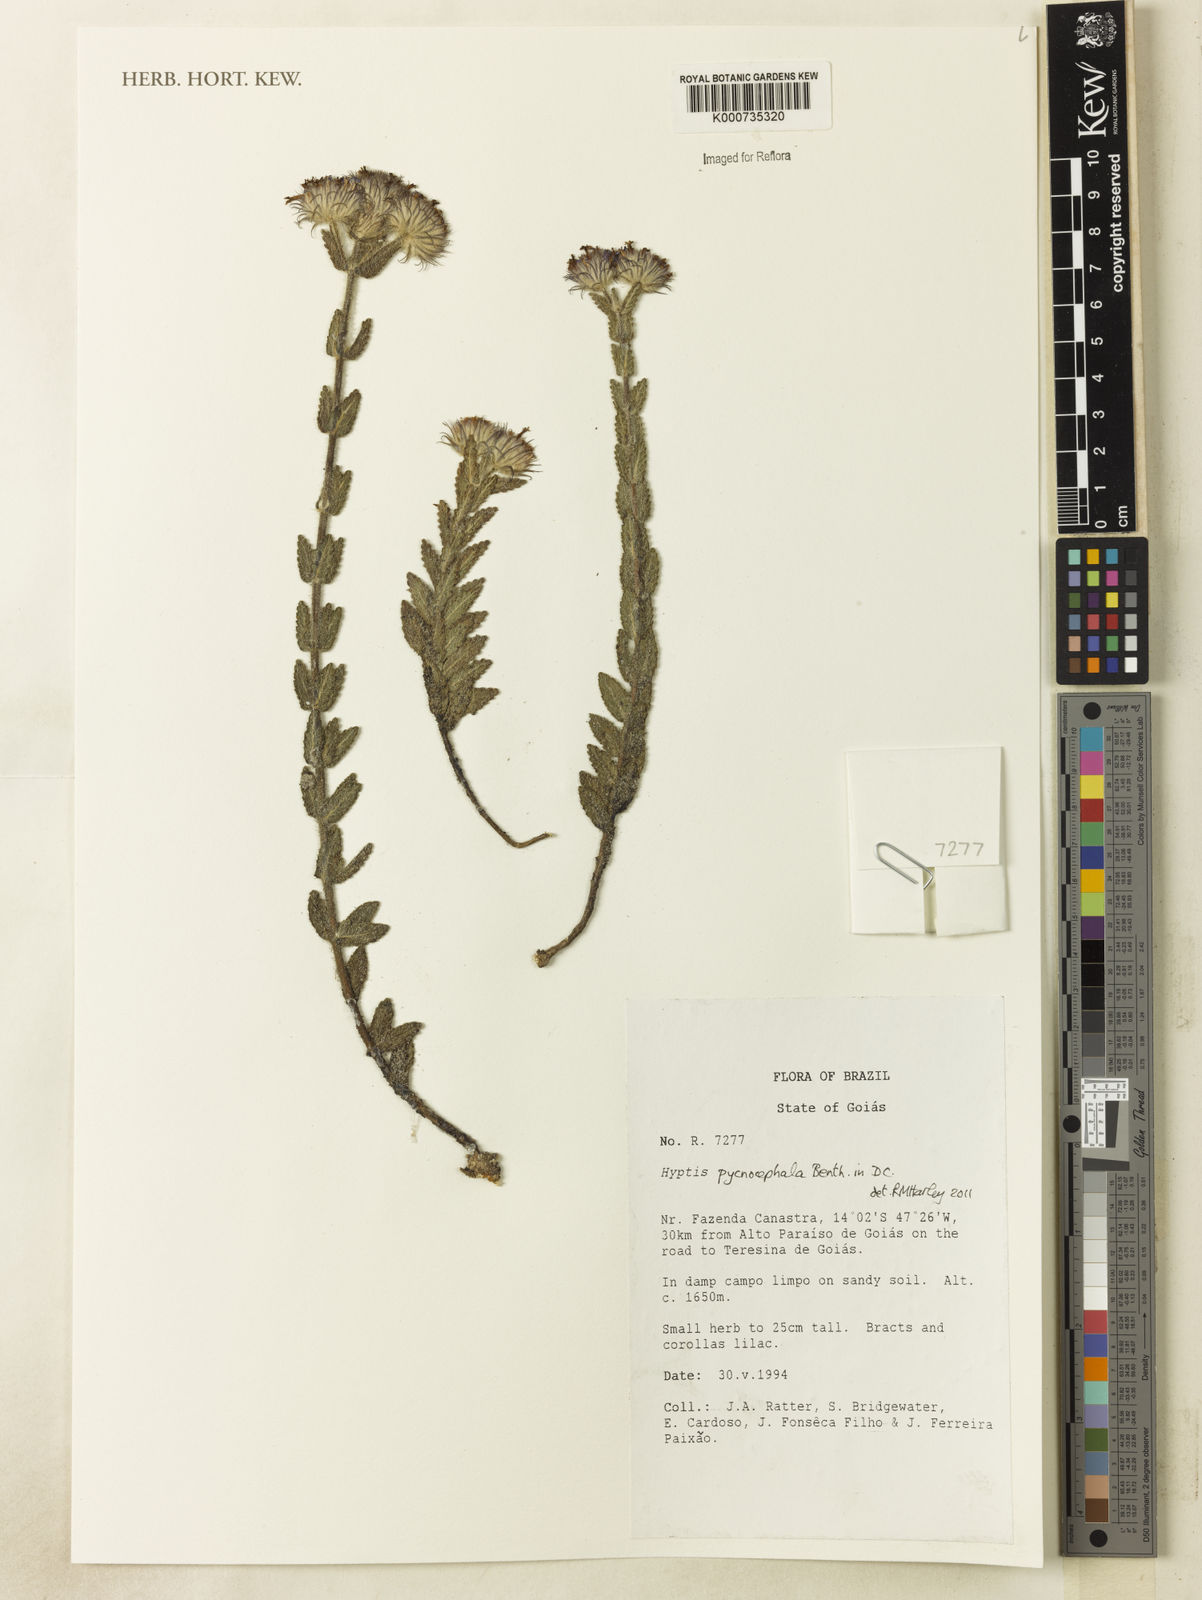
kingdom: Plantae
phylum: Tracheophyta
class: Magnoliopsida
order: Lamiales
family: Lamiaceae
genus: Hyptis
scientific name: Hyptis pycnocephala
